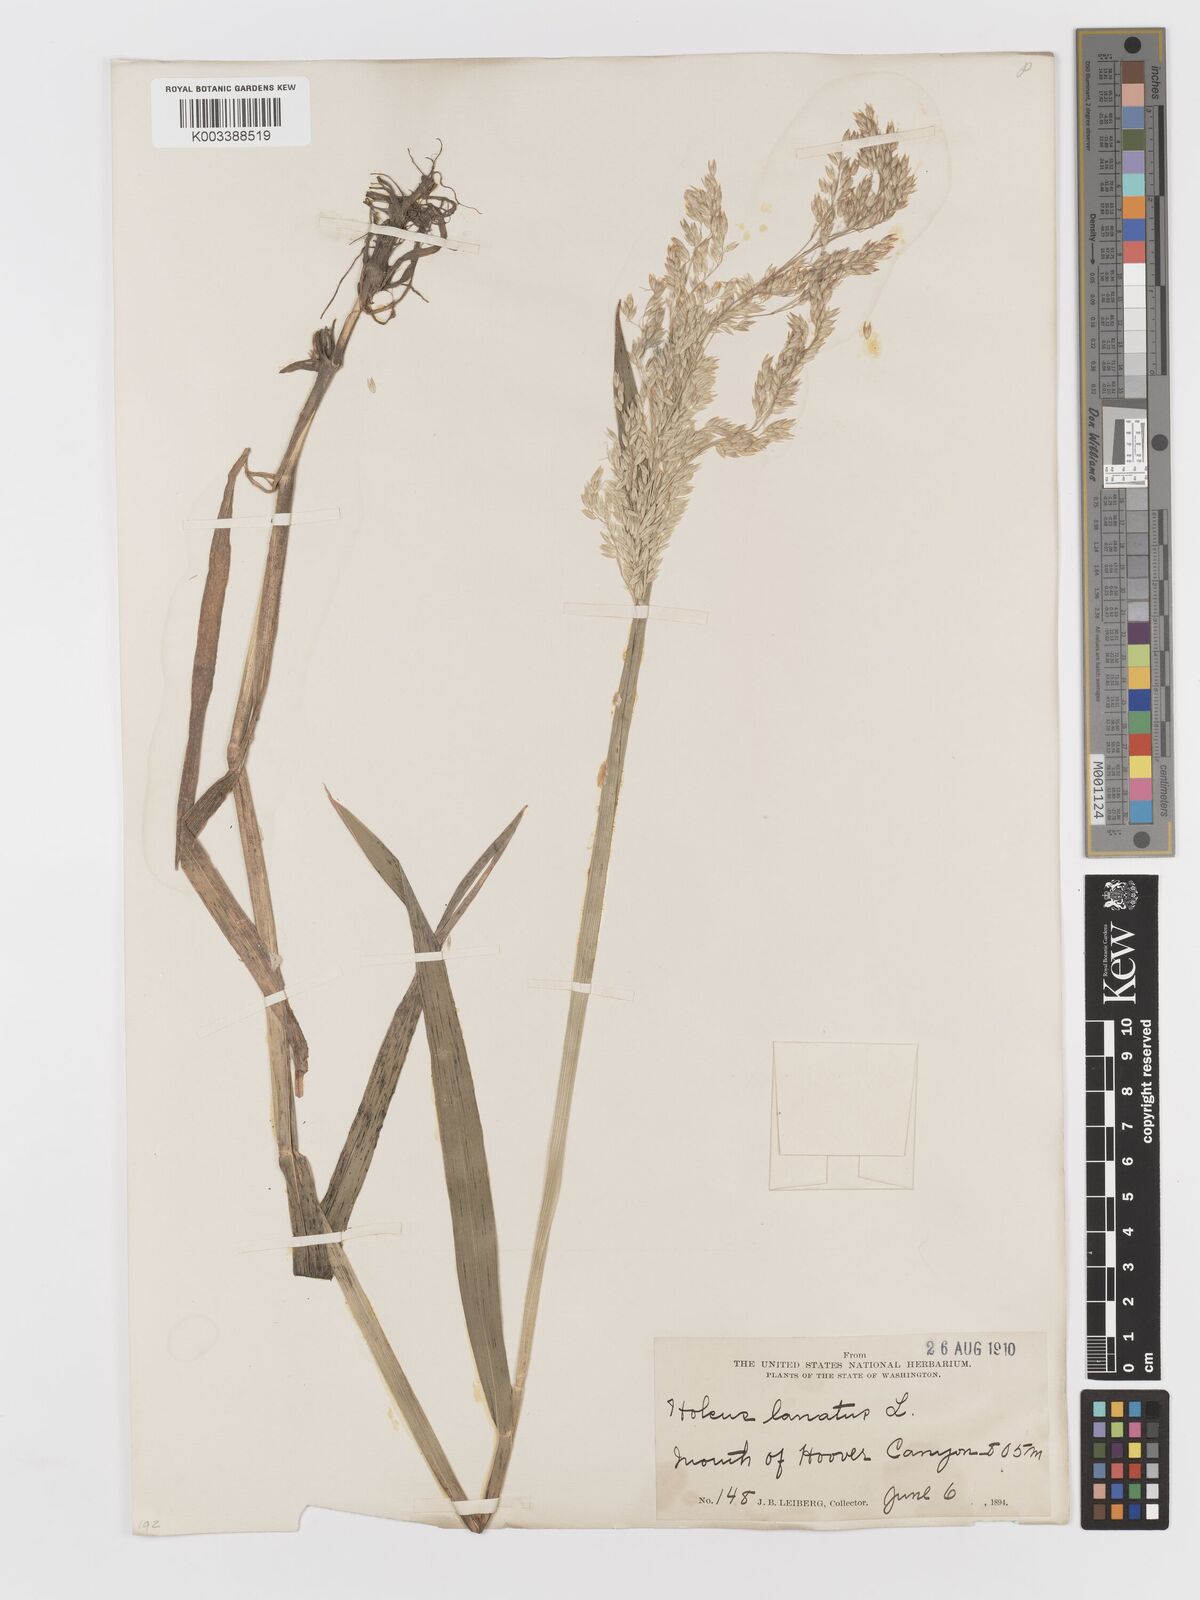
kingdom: Plantae
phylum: Tracheophyta
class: Liliopsida
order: Poales
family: Poaceae
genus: Holcus
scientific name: Holcus lanatus
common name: Yorkshire-fog
